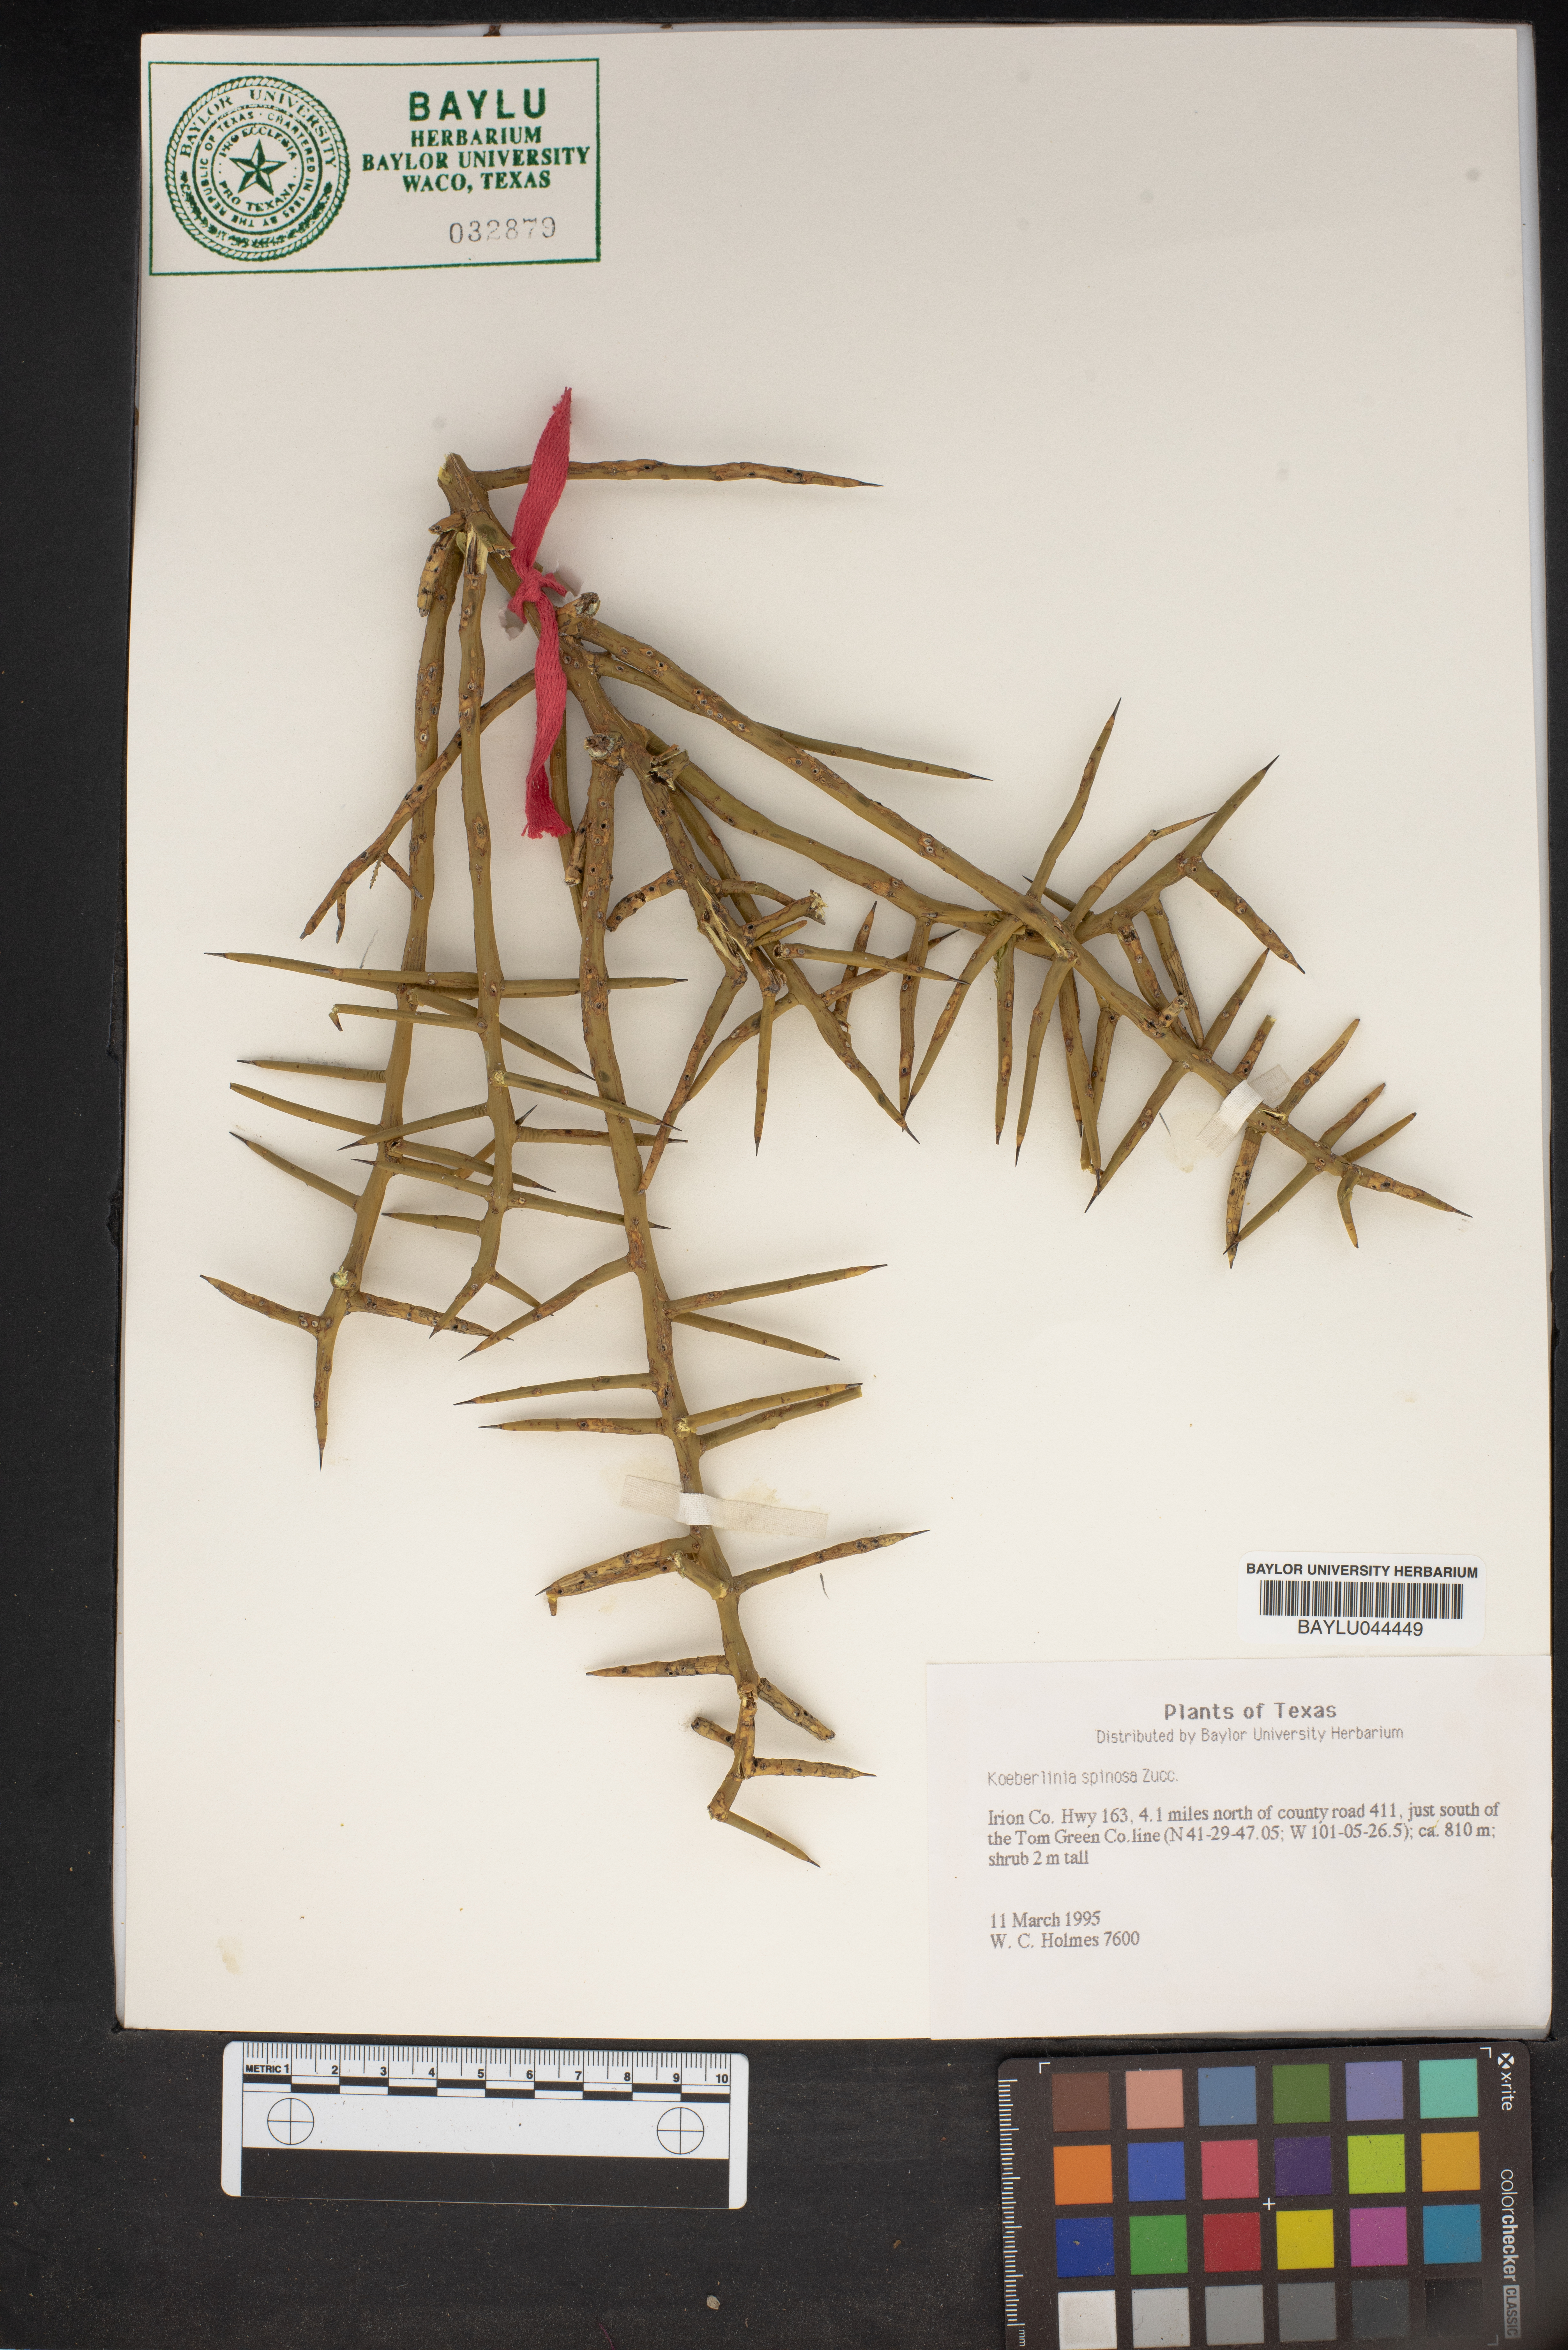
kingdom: Plantae
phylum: Tracheophyta
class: Magnoliopsida
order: Brassicales
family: Koeberliniaceae
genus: Koeberlinia
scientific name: Koeberlinia spinosa
